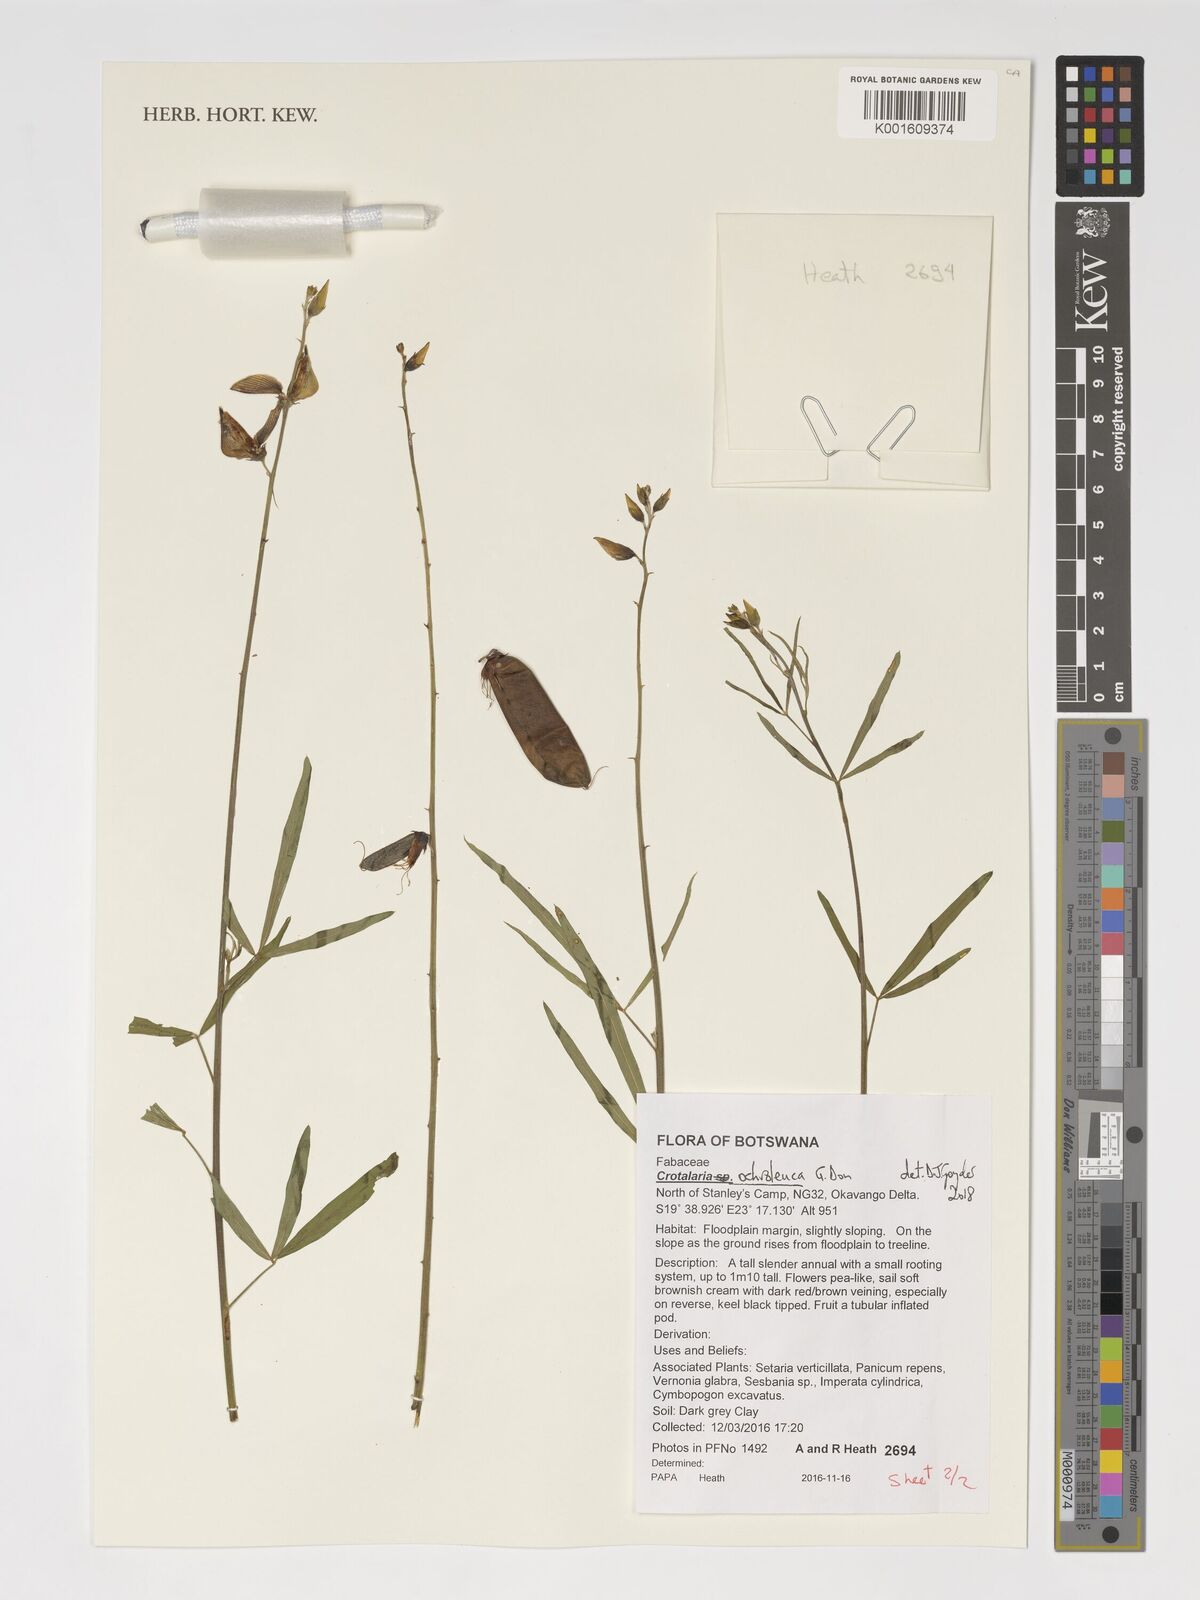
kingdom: Plantae
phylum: Tracheophyta
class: Magnoliopsida
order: Fabales
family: Fabaceae
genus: Crotalaria
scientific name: Crotalaria ochroleuca
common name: Slender leaf rattlebox
